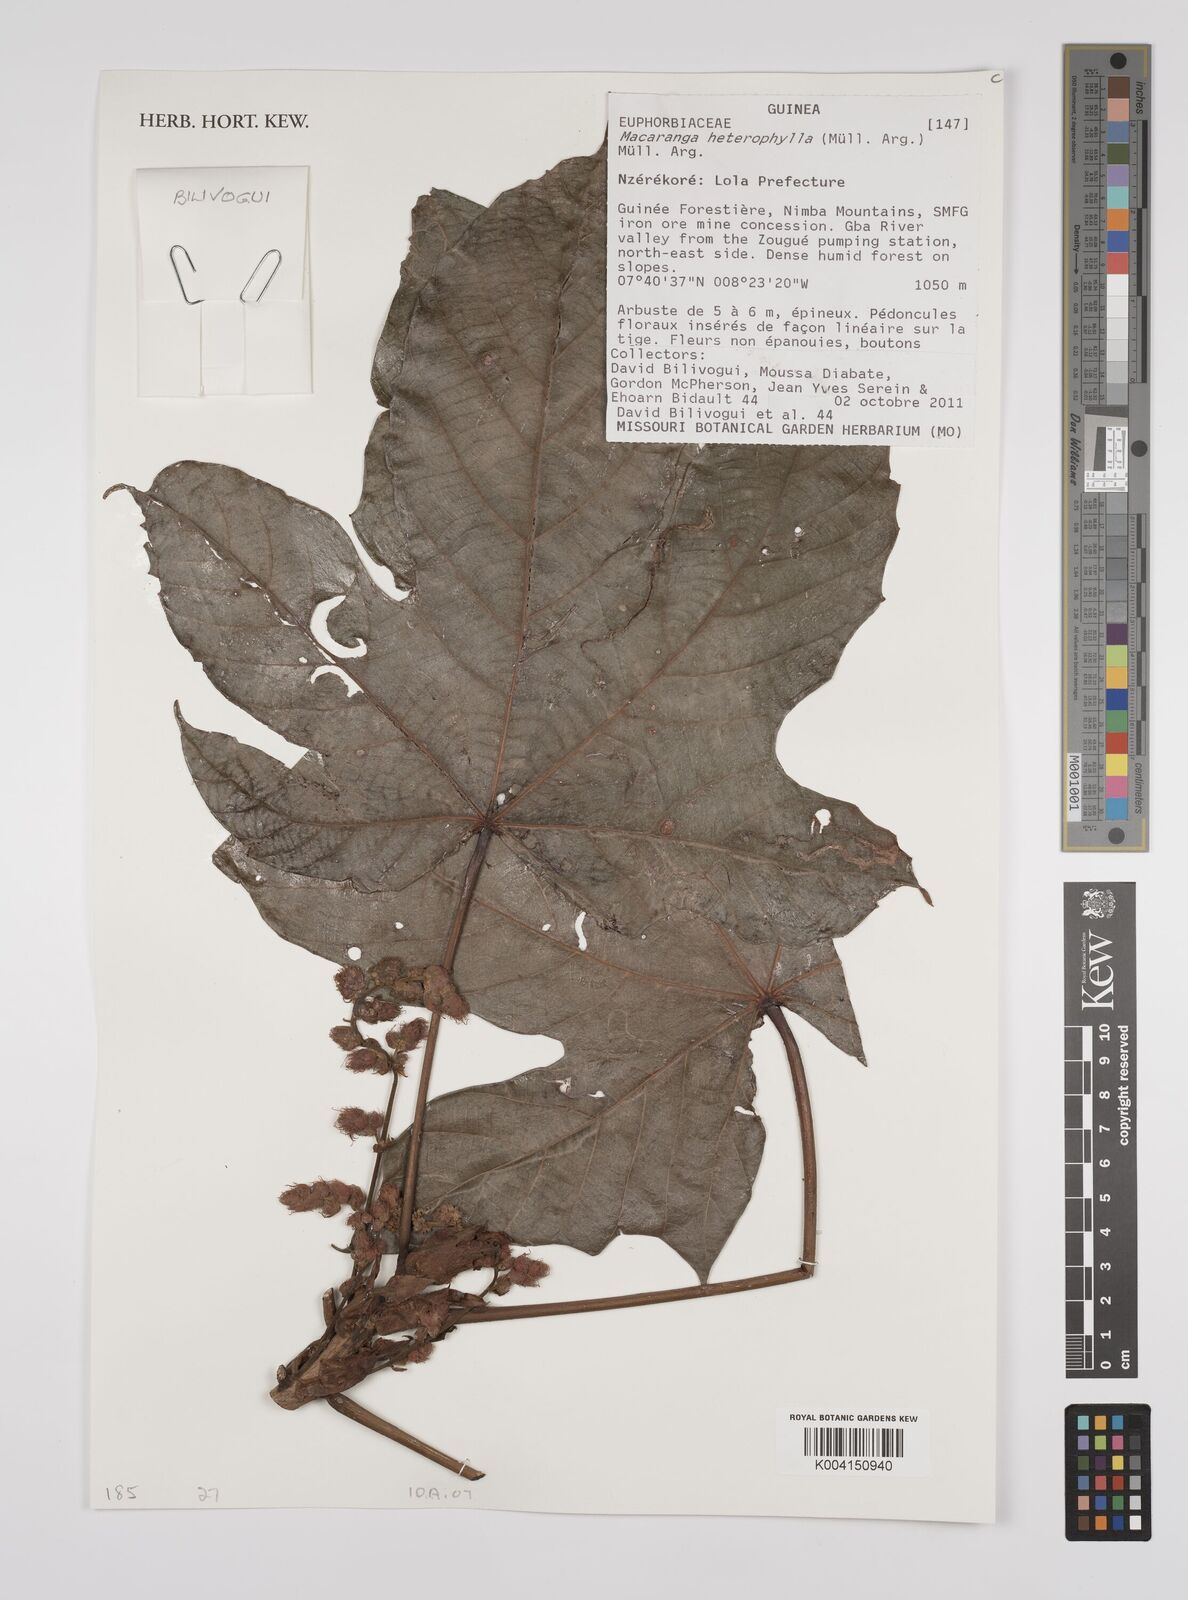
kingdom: Plantae
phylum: Tracheophyta
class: Magnoliopsida
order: Malpighiales
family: Euphorbiaceae
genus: Macaranga
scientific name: Macaranga heterophylla
